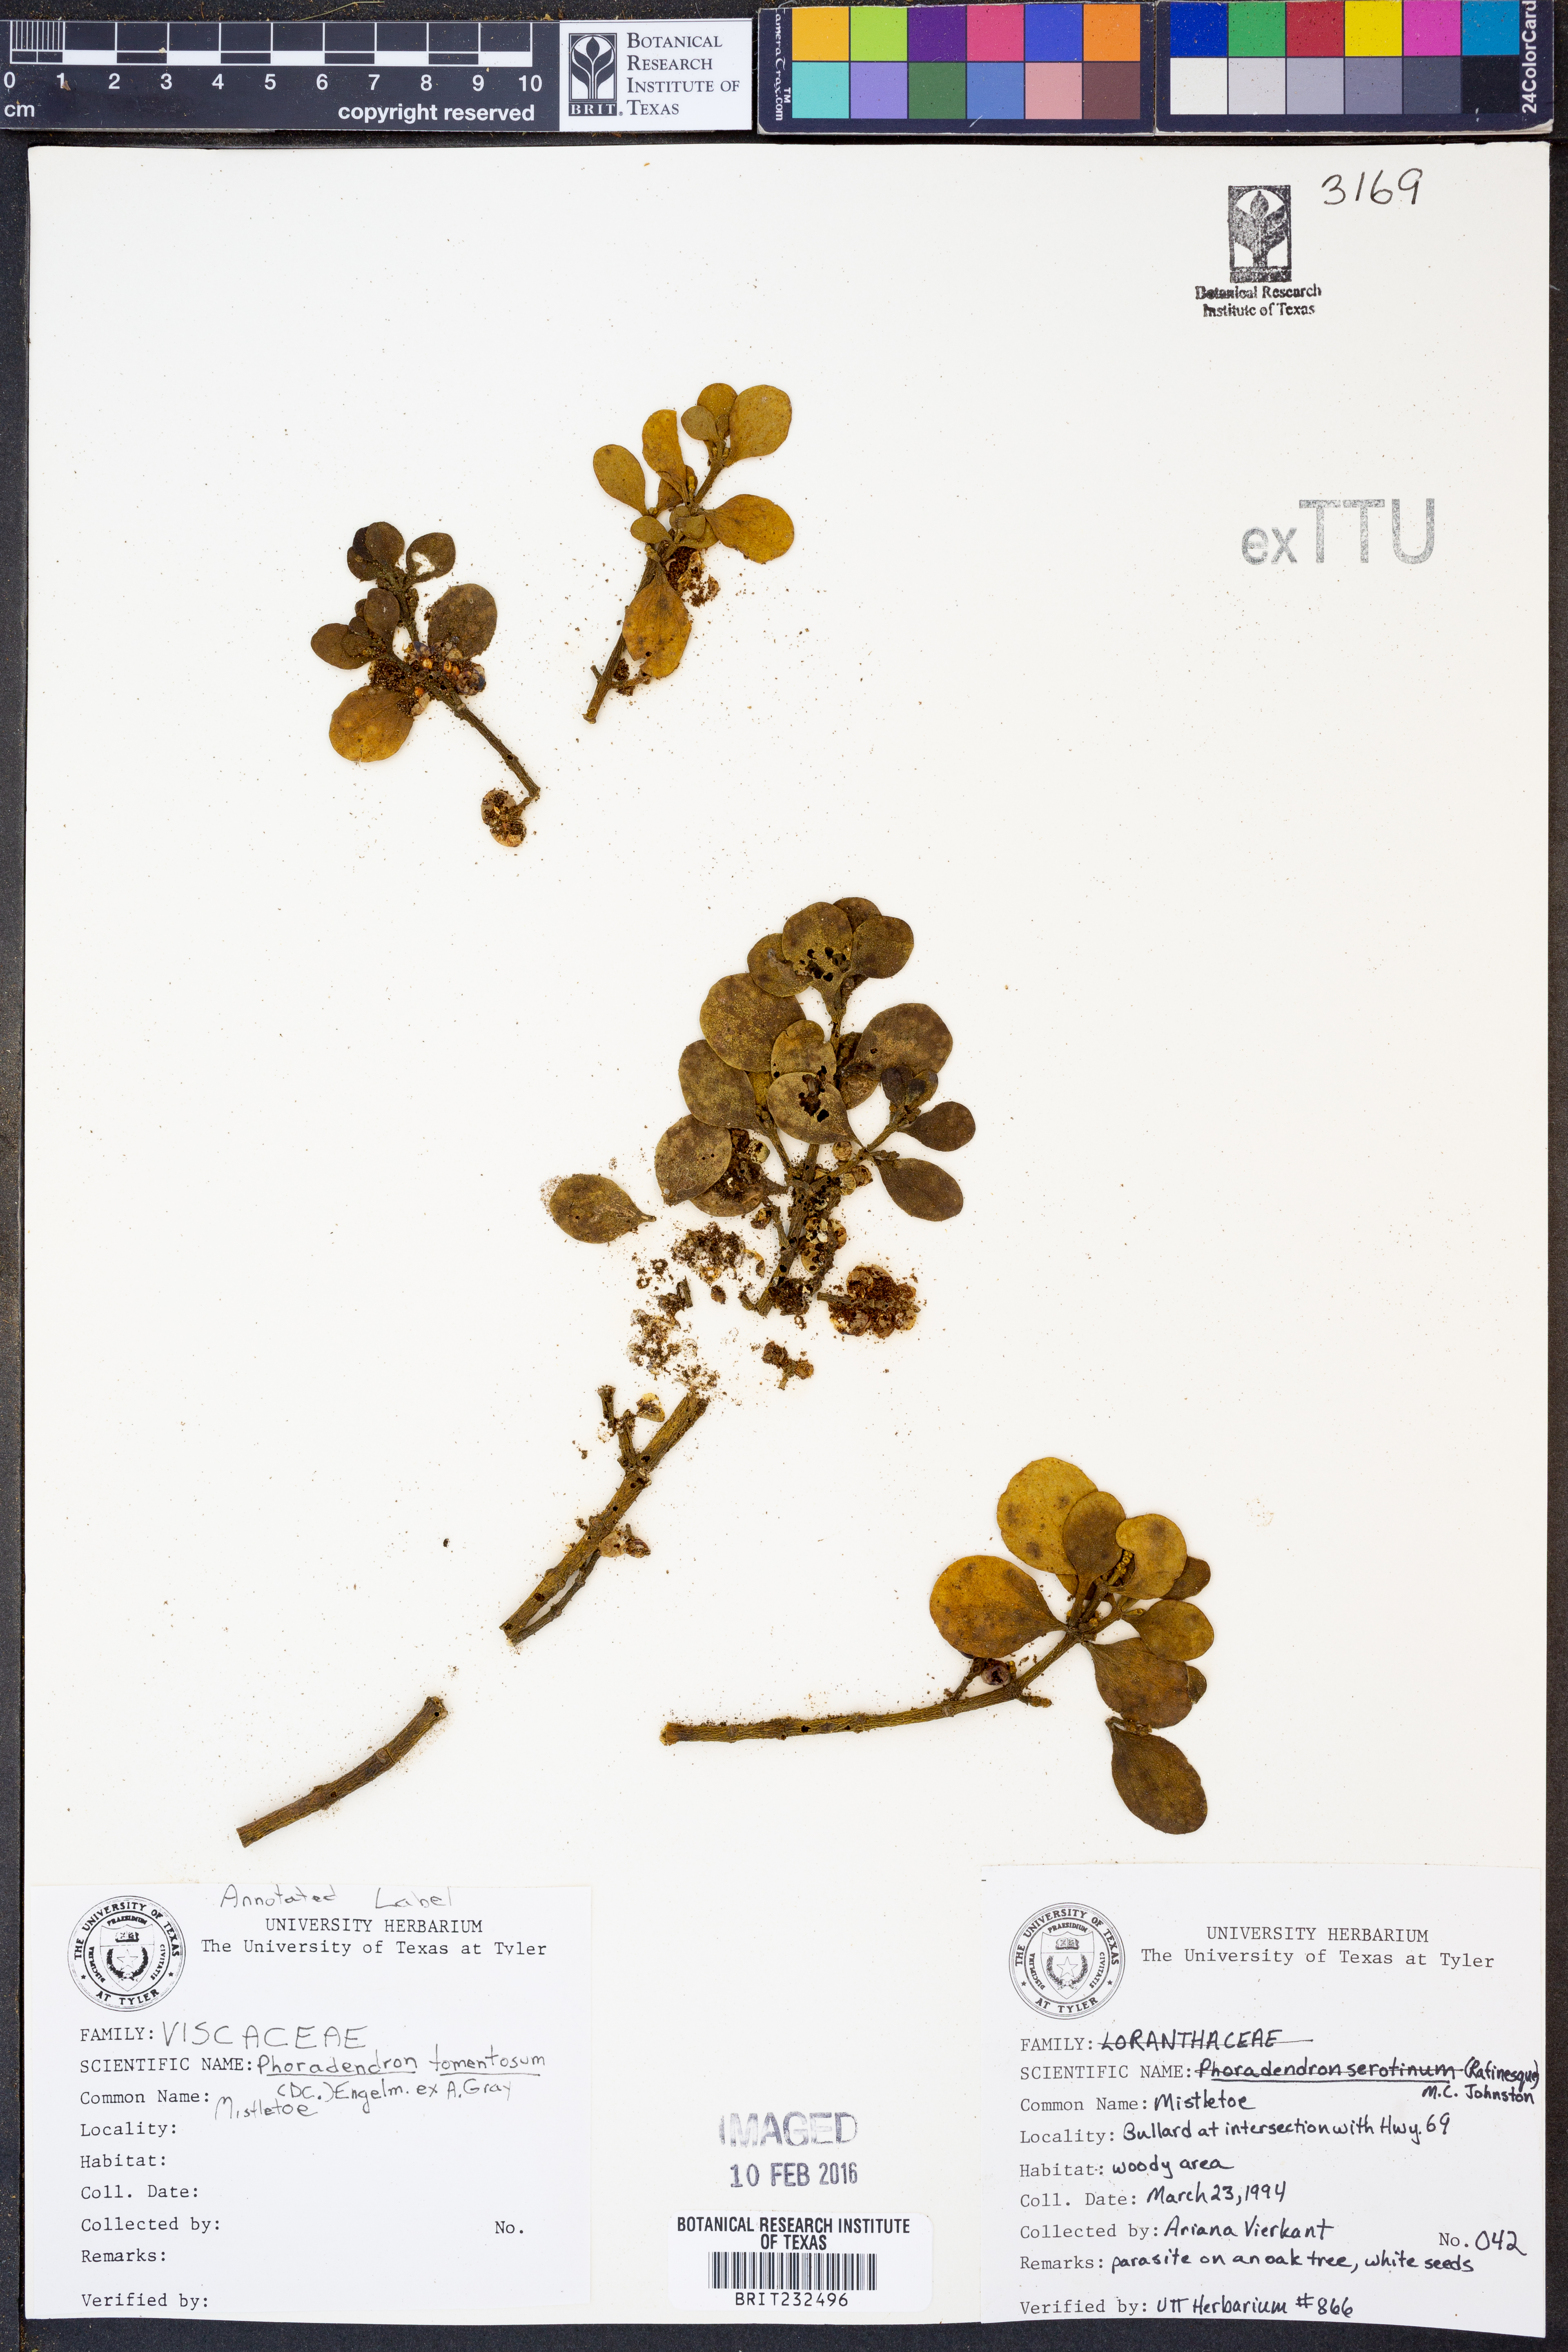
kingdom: Plantae
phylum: Tracheophyta
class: Magnoliopsida
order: Santalales
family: Viscaceae
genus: Phoradendron
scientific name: Phoradendron leucarpum
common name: Pacific mistletoe
